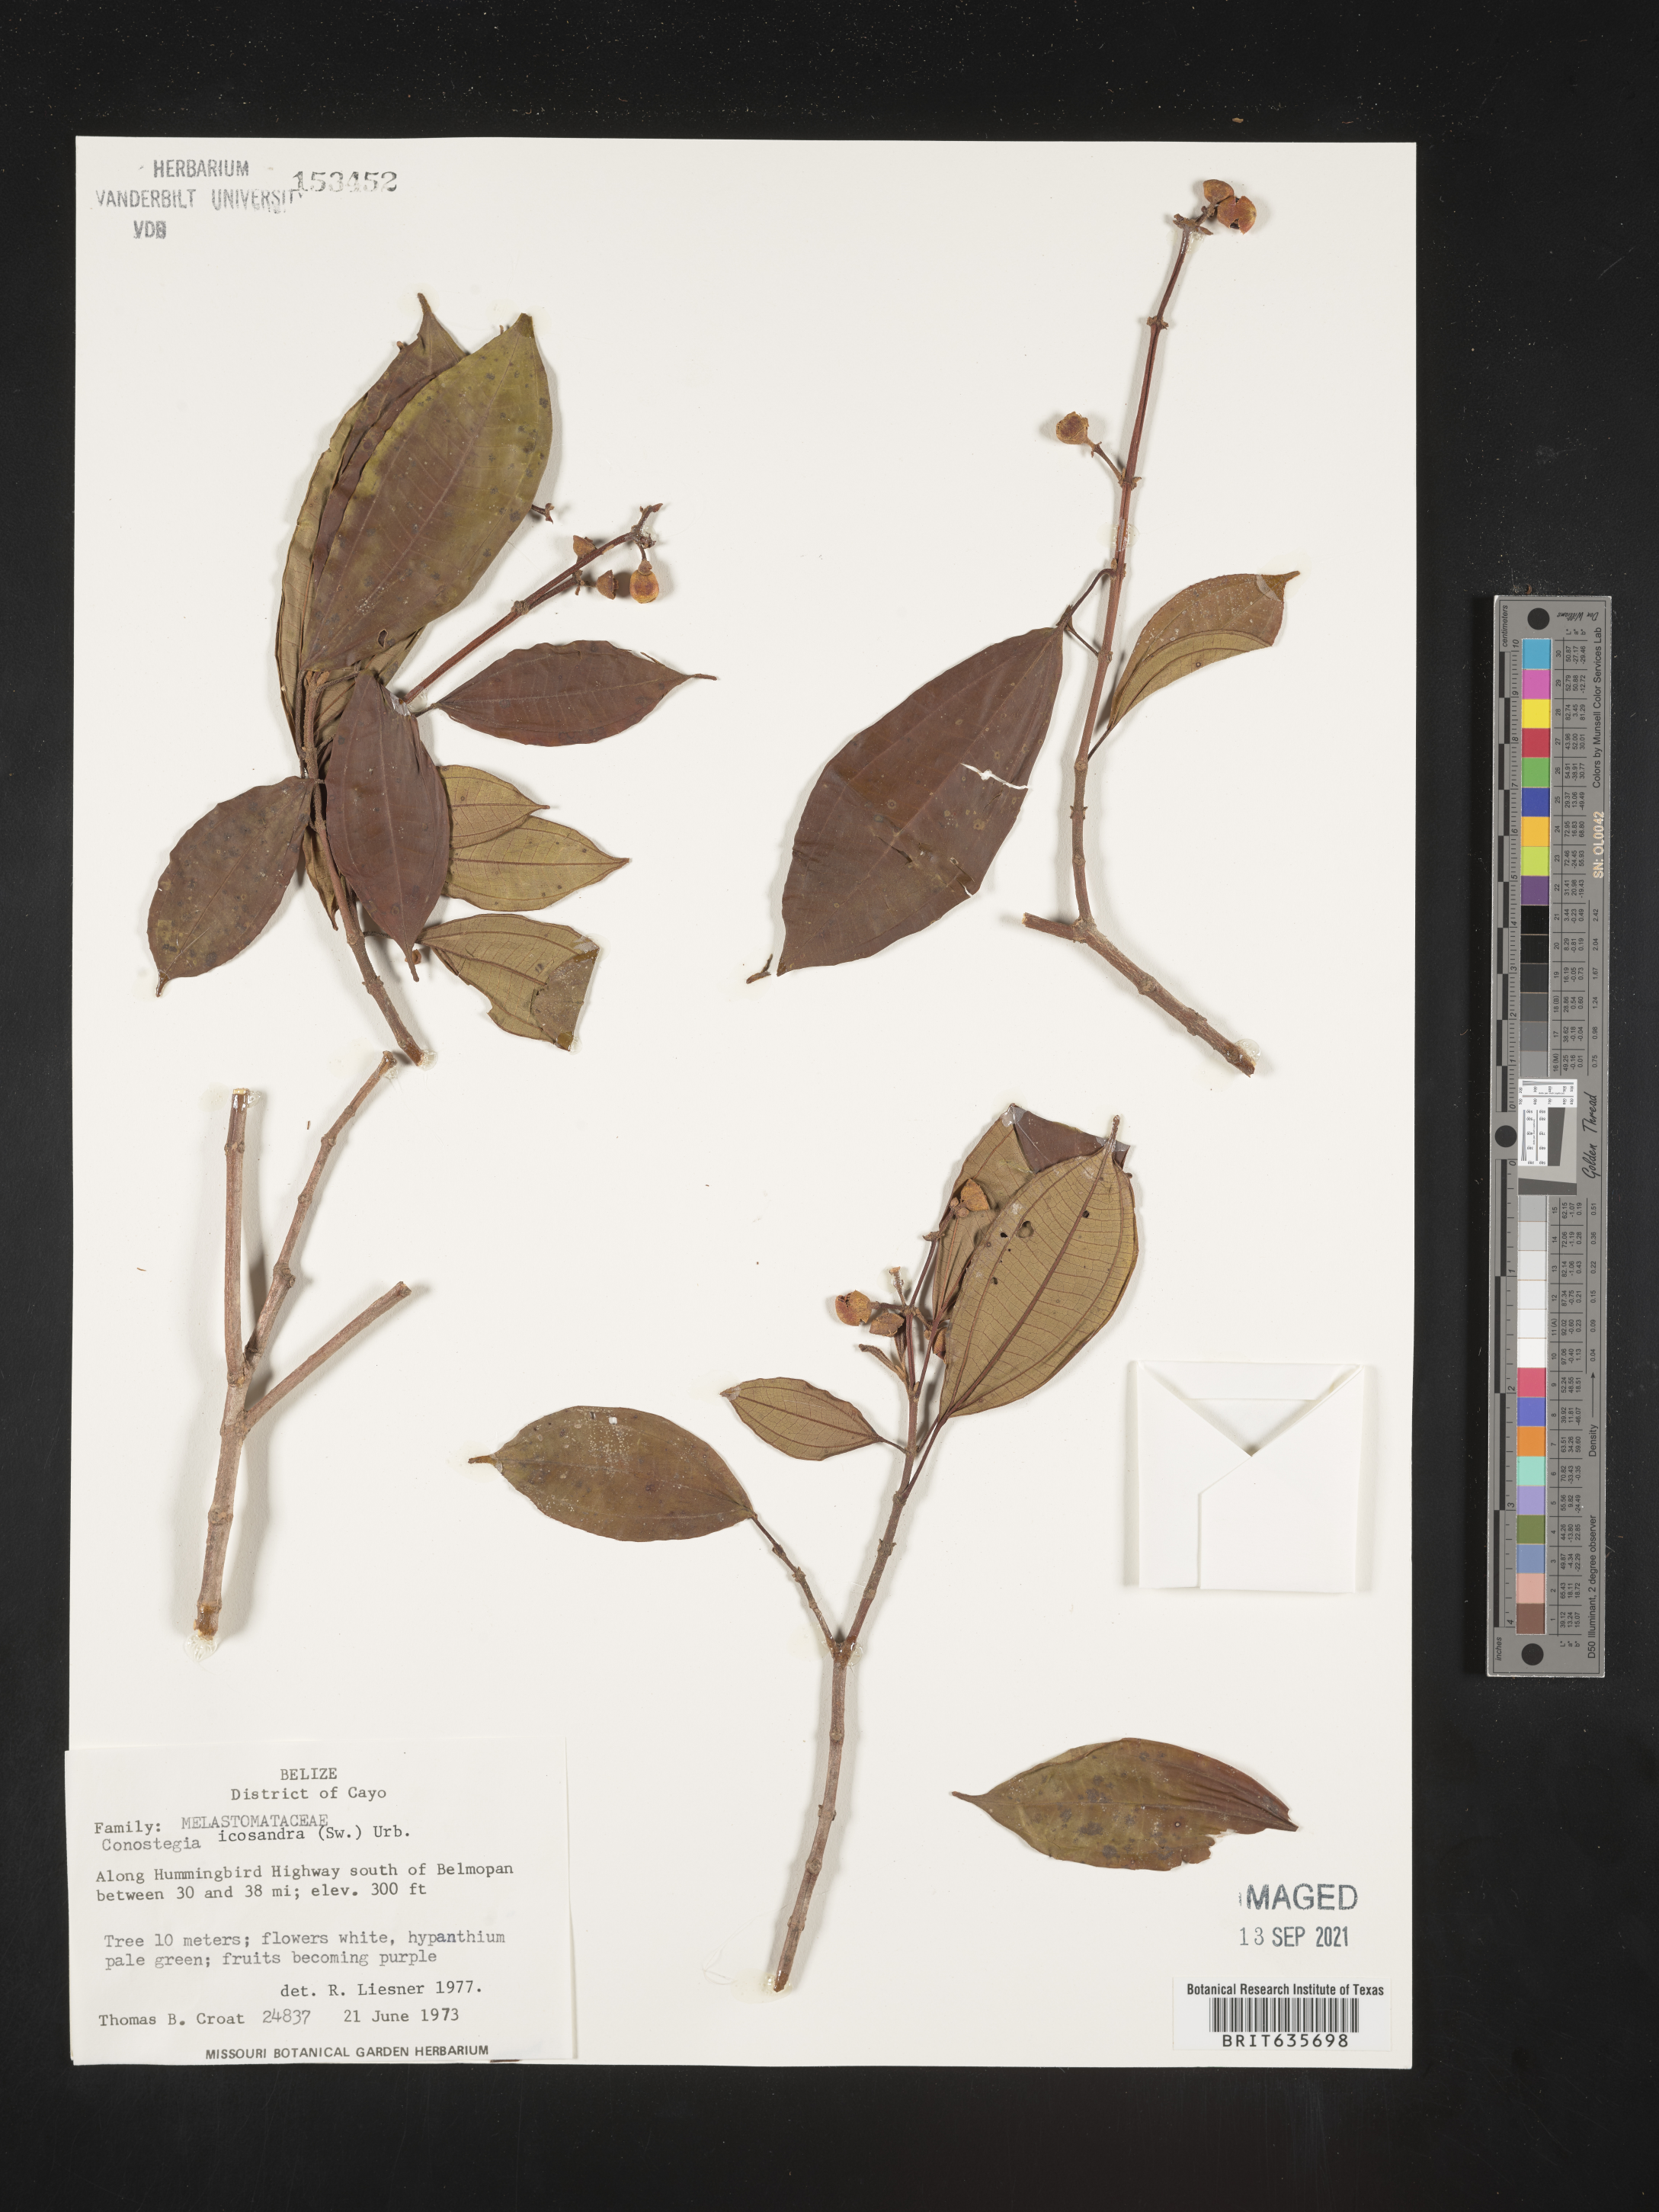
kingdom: Plantae
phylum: Tracheophyta
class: Magnoliopsida
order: Myrtales
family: Melastomataceae
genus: Miconia
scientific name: Miconia
